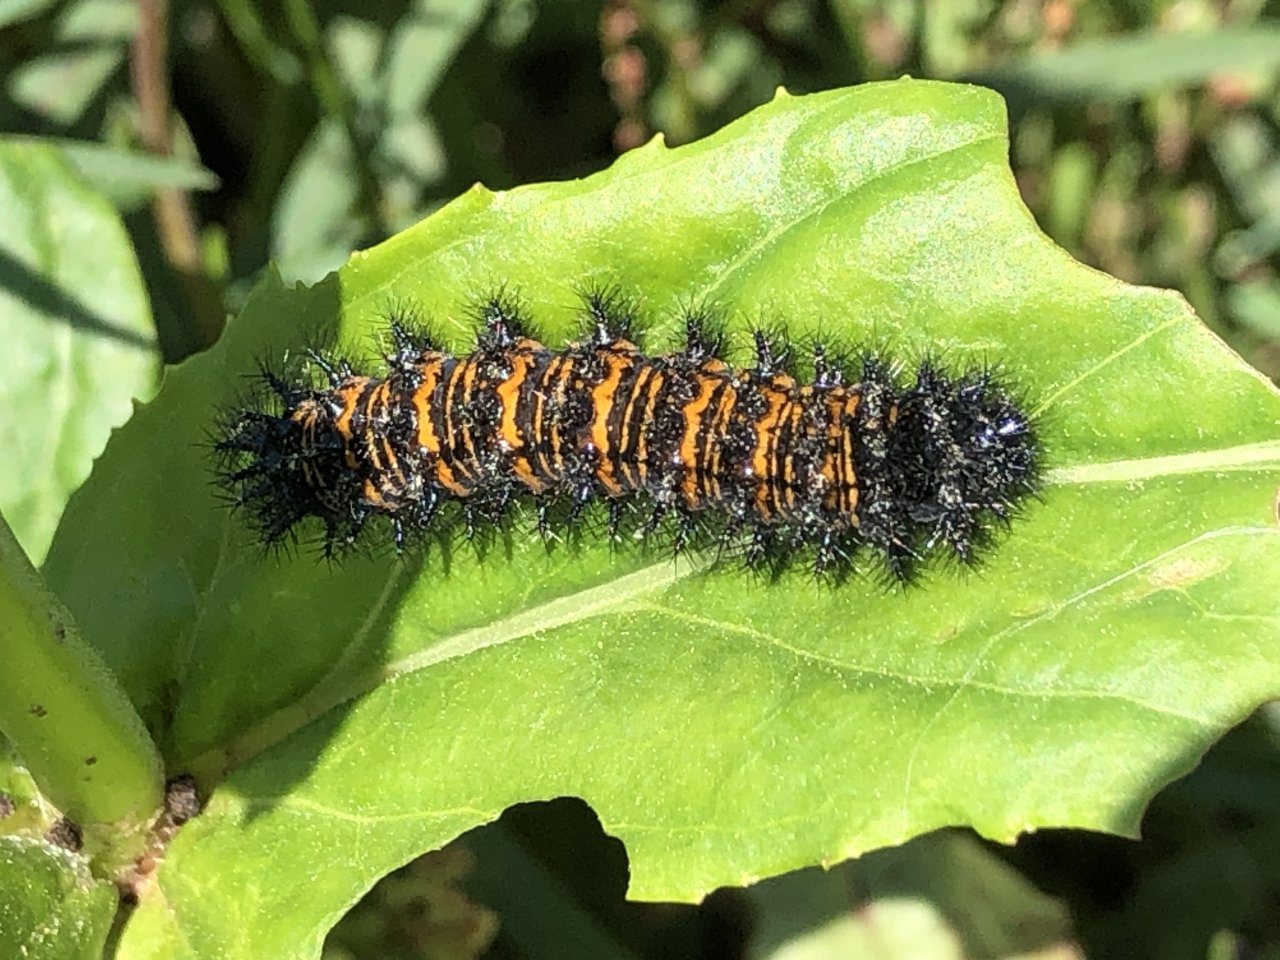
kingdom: Animalia
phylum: Arthropoda
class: Insecta
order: Lepidoptera
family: Nymphalidae
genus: Euphydryas
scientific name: Euphydryas phaeton
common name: Baltimore Checkerspot
